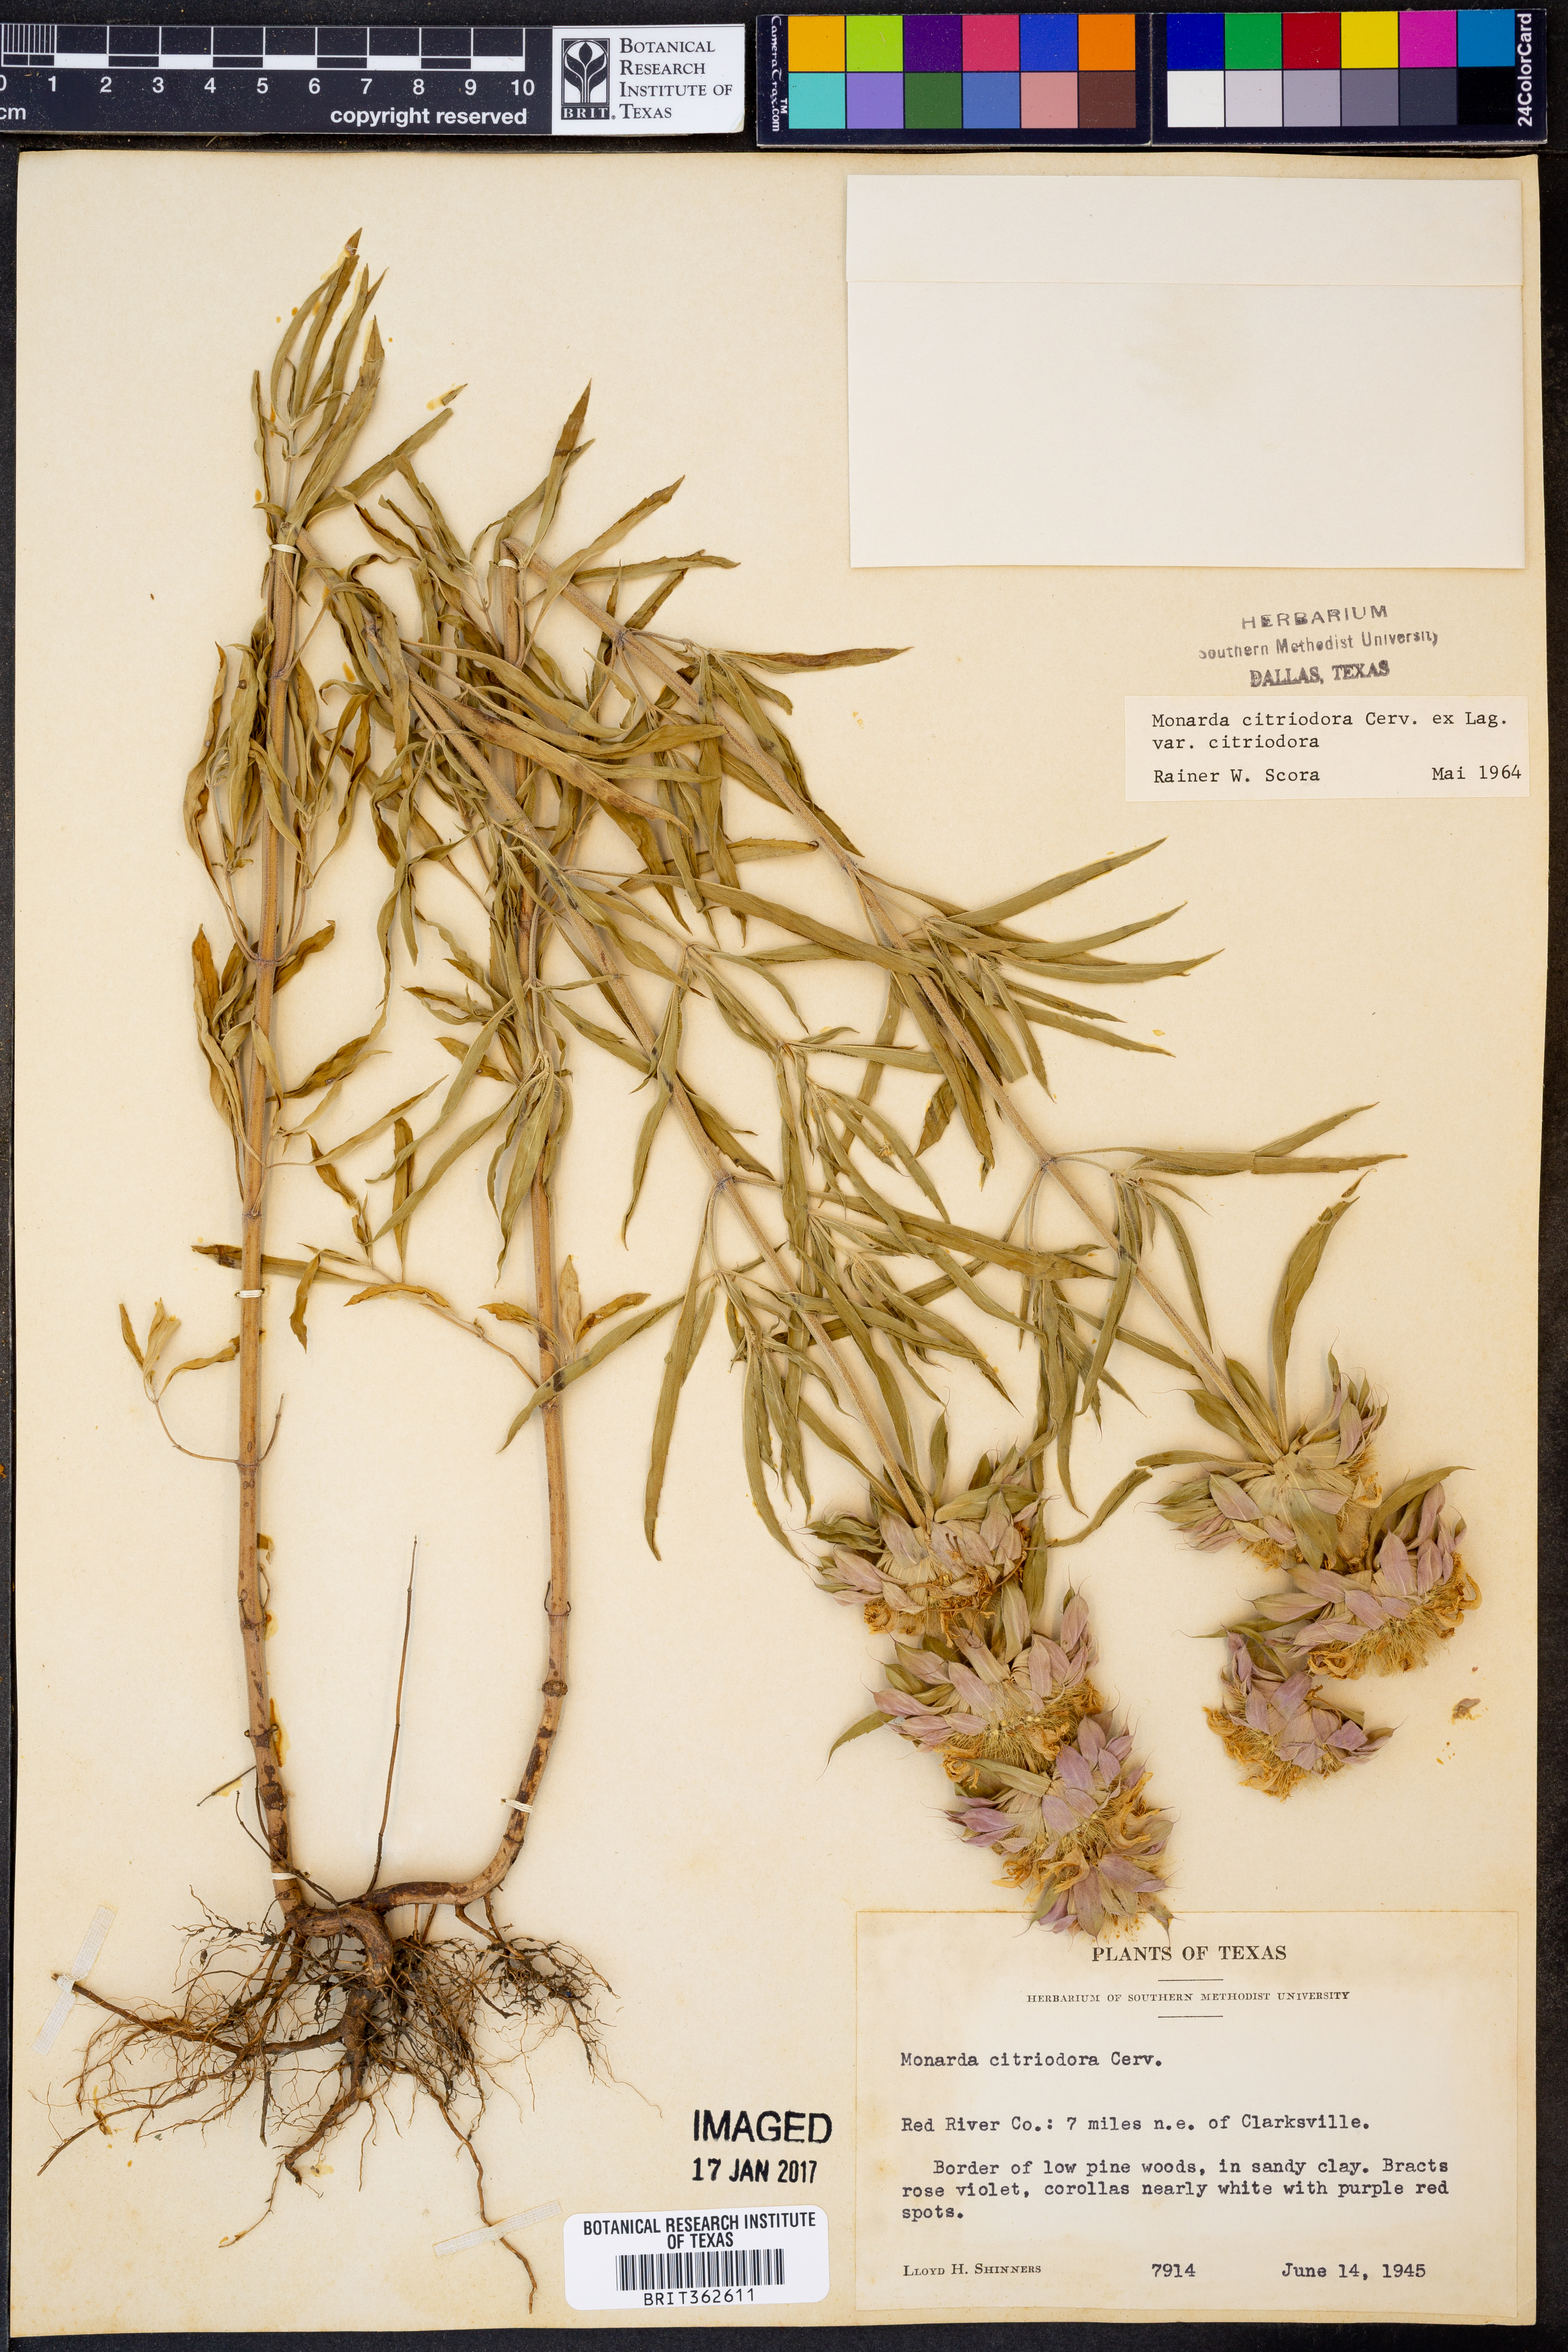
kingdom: Plantae
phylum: Tracheophyta
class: Magnoliopsida
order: Lamiales
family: Lamiaceae
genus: Monarda
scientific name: Monarda citriodora
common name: Lemon beebalm
